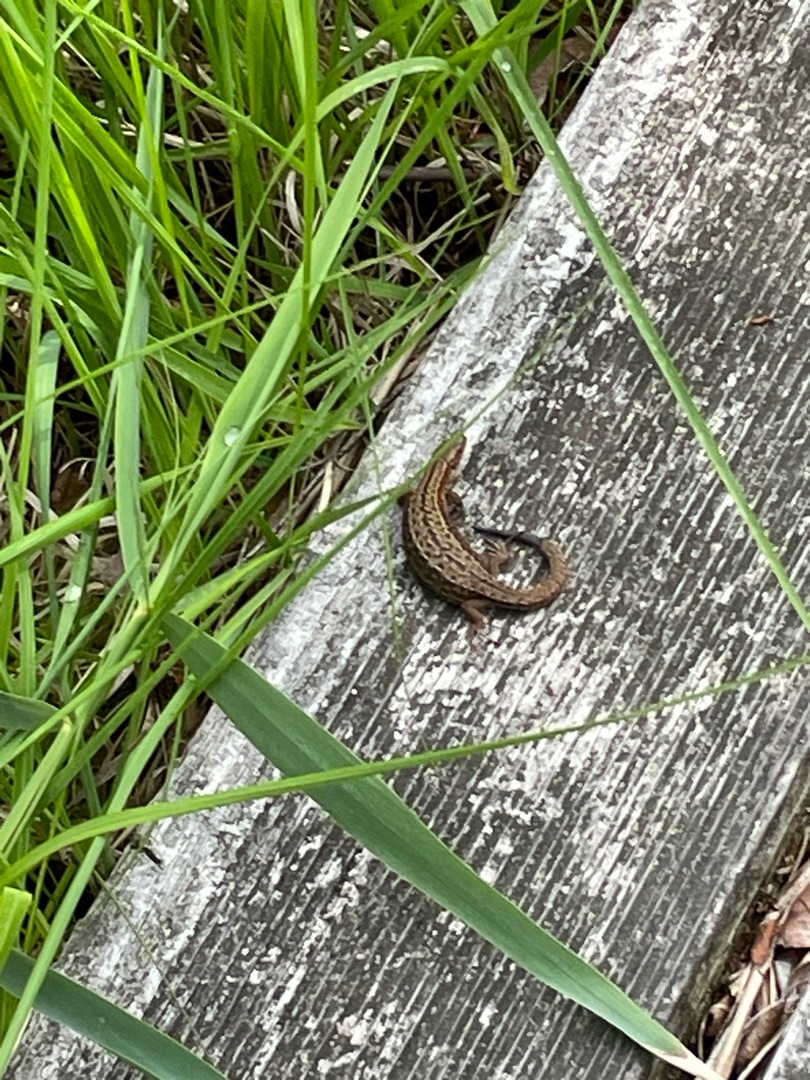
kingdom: Animalia
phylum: Chordata
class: Squamata
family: Lacertidae
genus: Zootoca
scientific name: Zootoca vivipara
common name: Skovfirben
